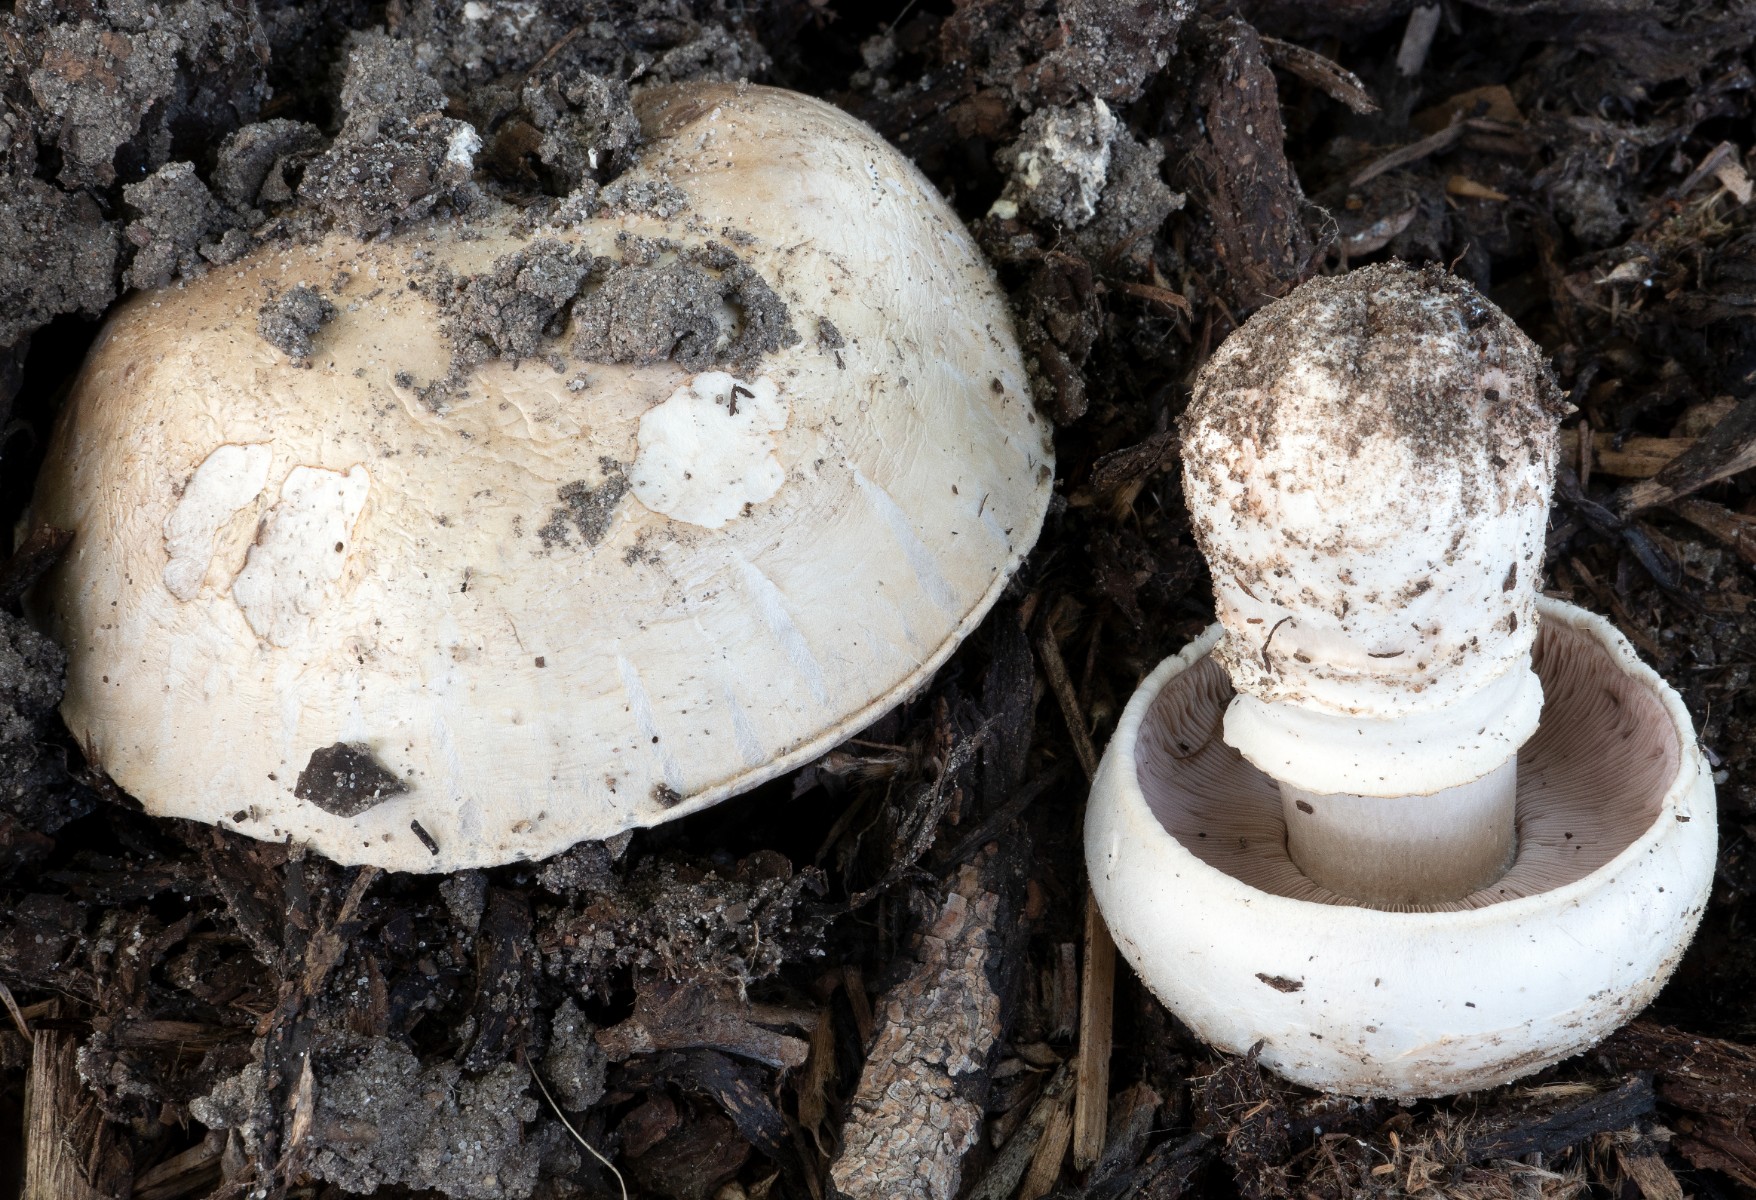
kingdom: Fungi
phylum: Basidiomycota
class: Agaricomycetes
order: Agaricales
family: Agaricaceae
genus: Agaricus
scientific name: Agaricus bitorquis
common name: vej-champignon
